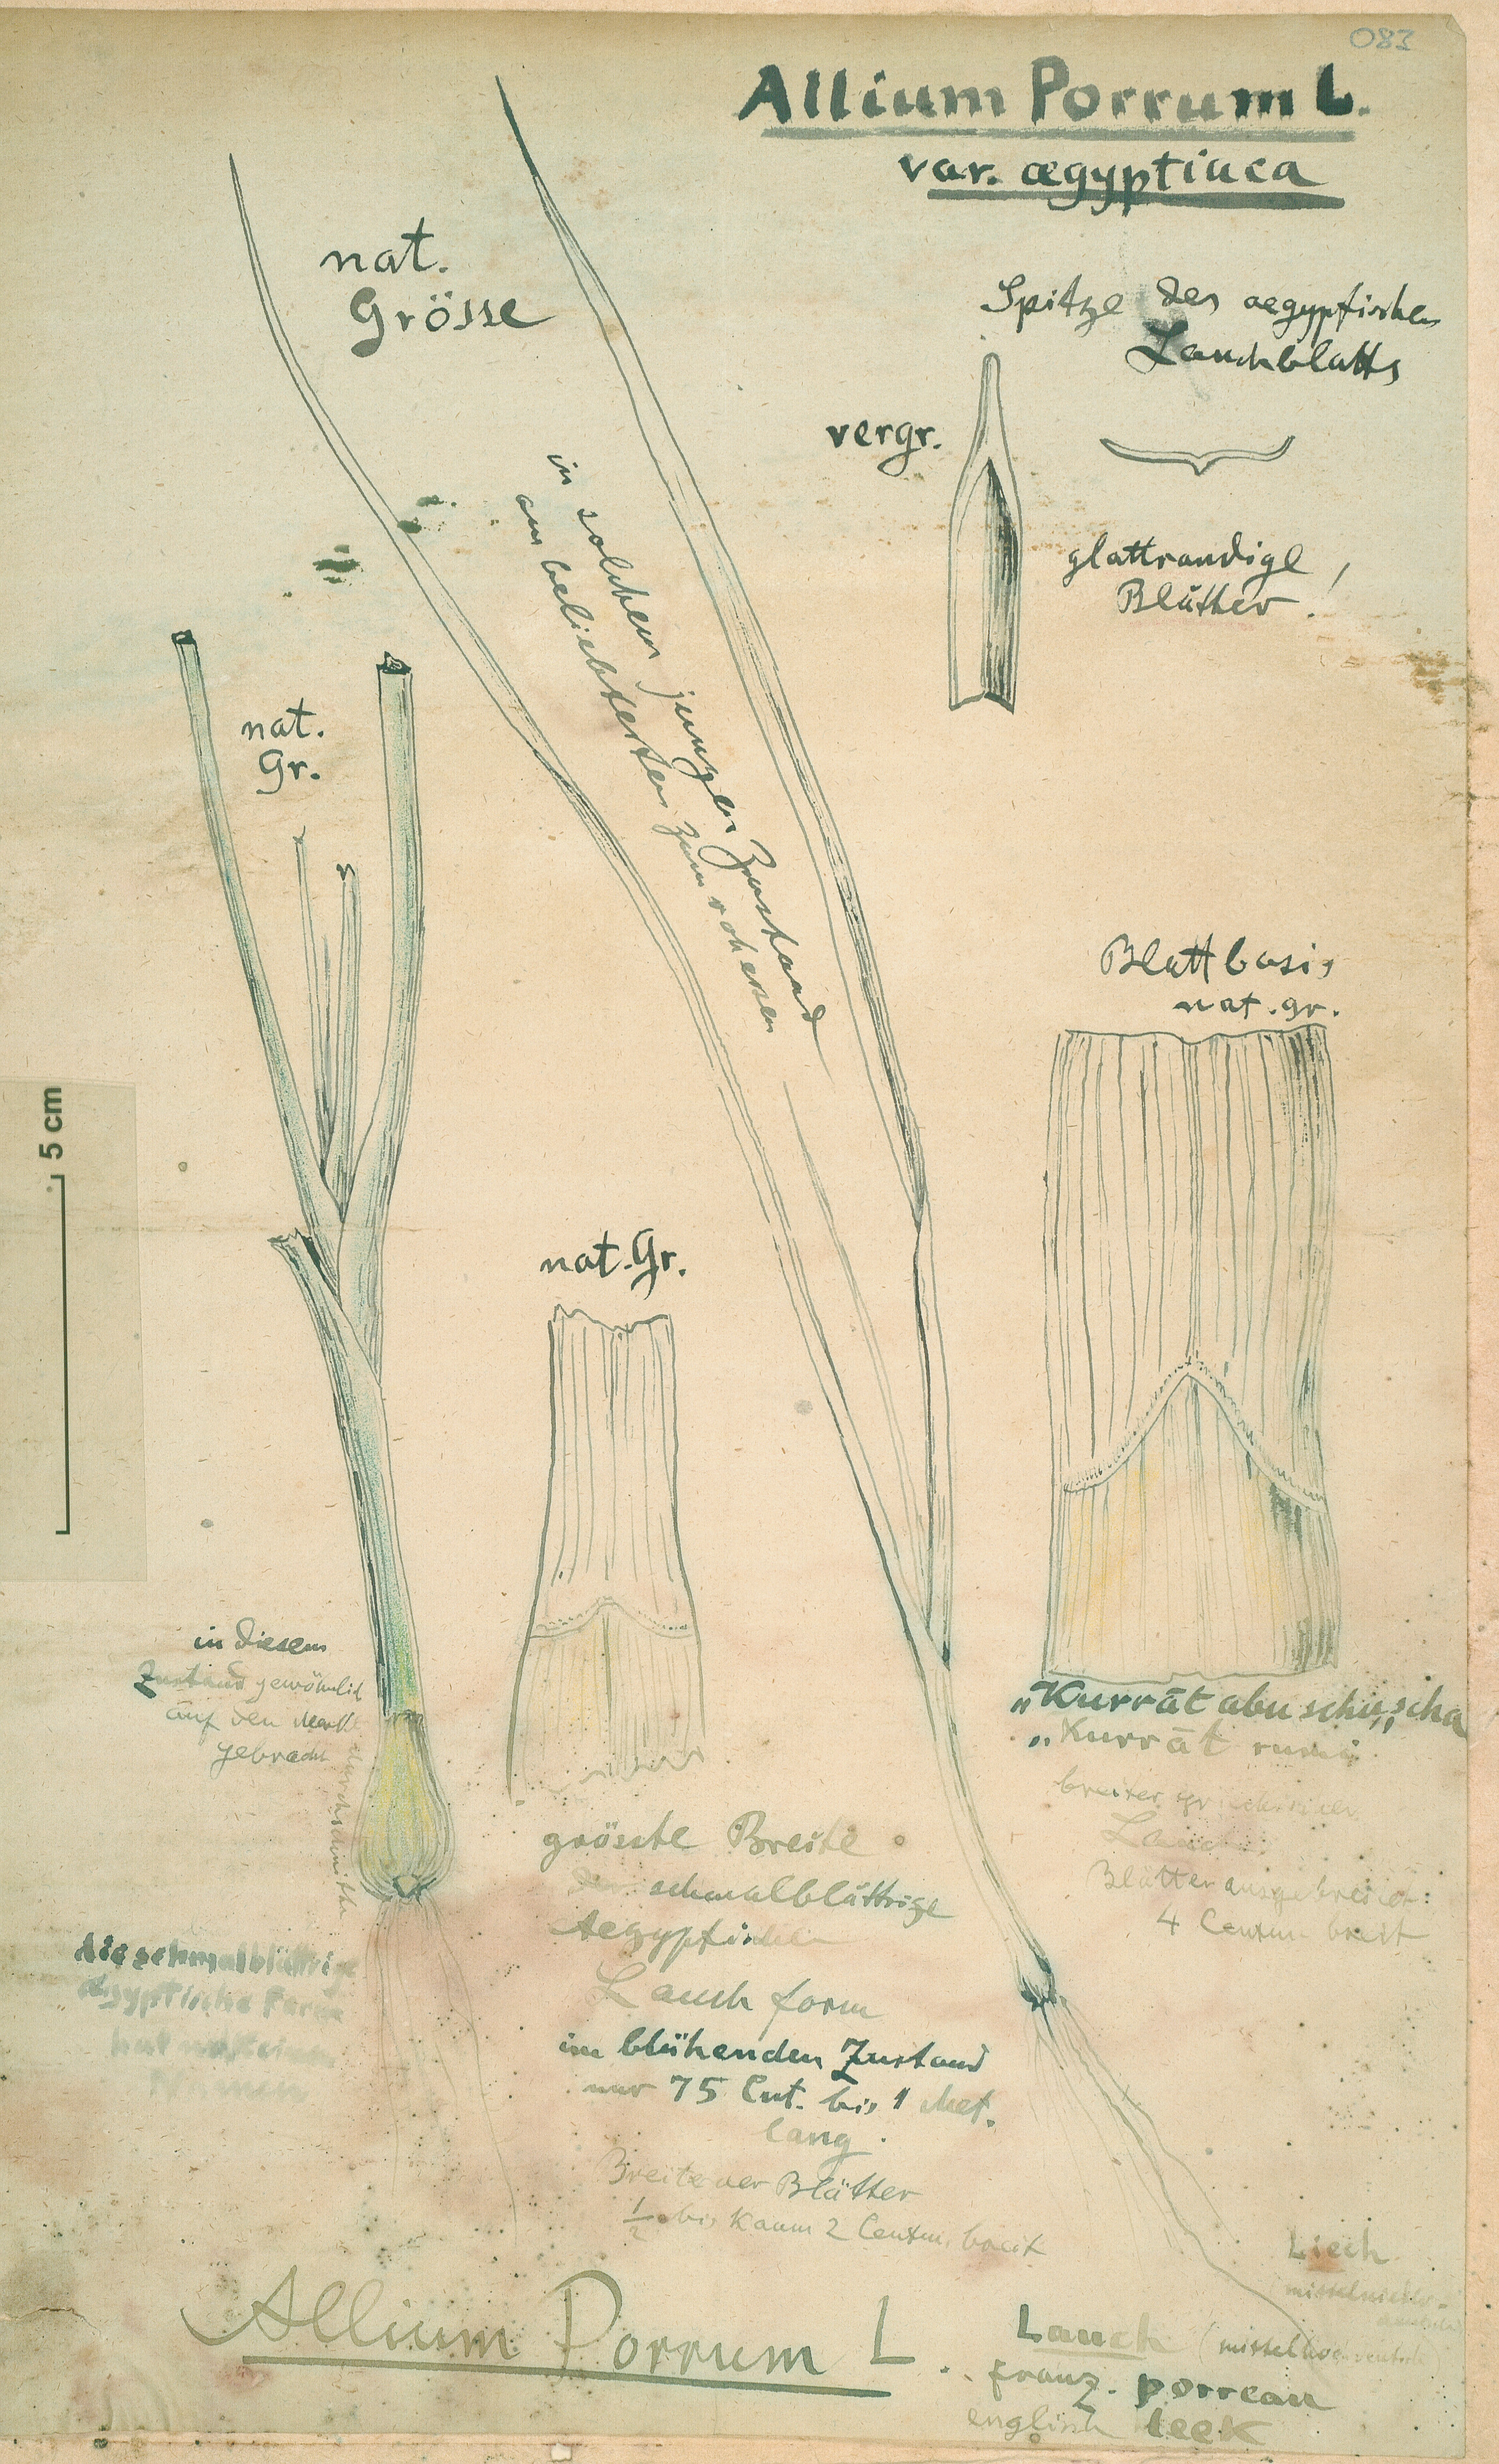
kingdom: Plantae
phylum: Tracheophyta
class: Liliopsida
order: Asparagales
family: Amaryllidaceae
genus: Allium
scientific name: Allium ampeloprasum
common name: Wild leek
